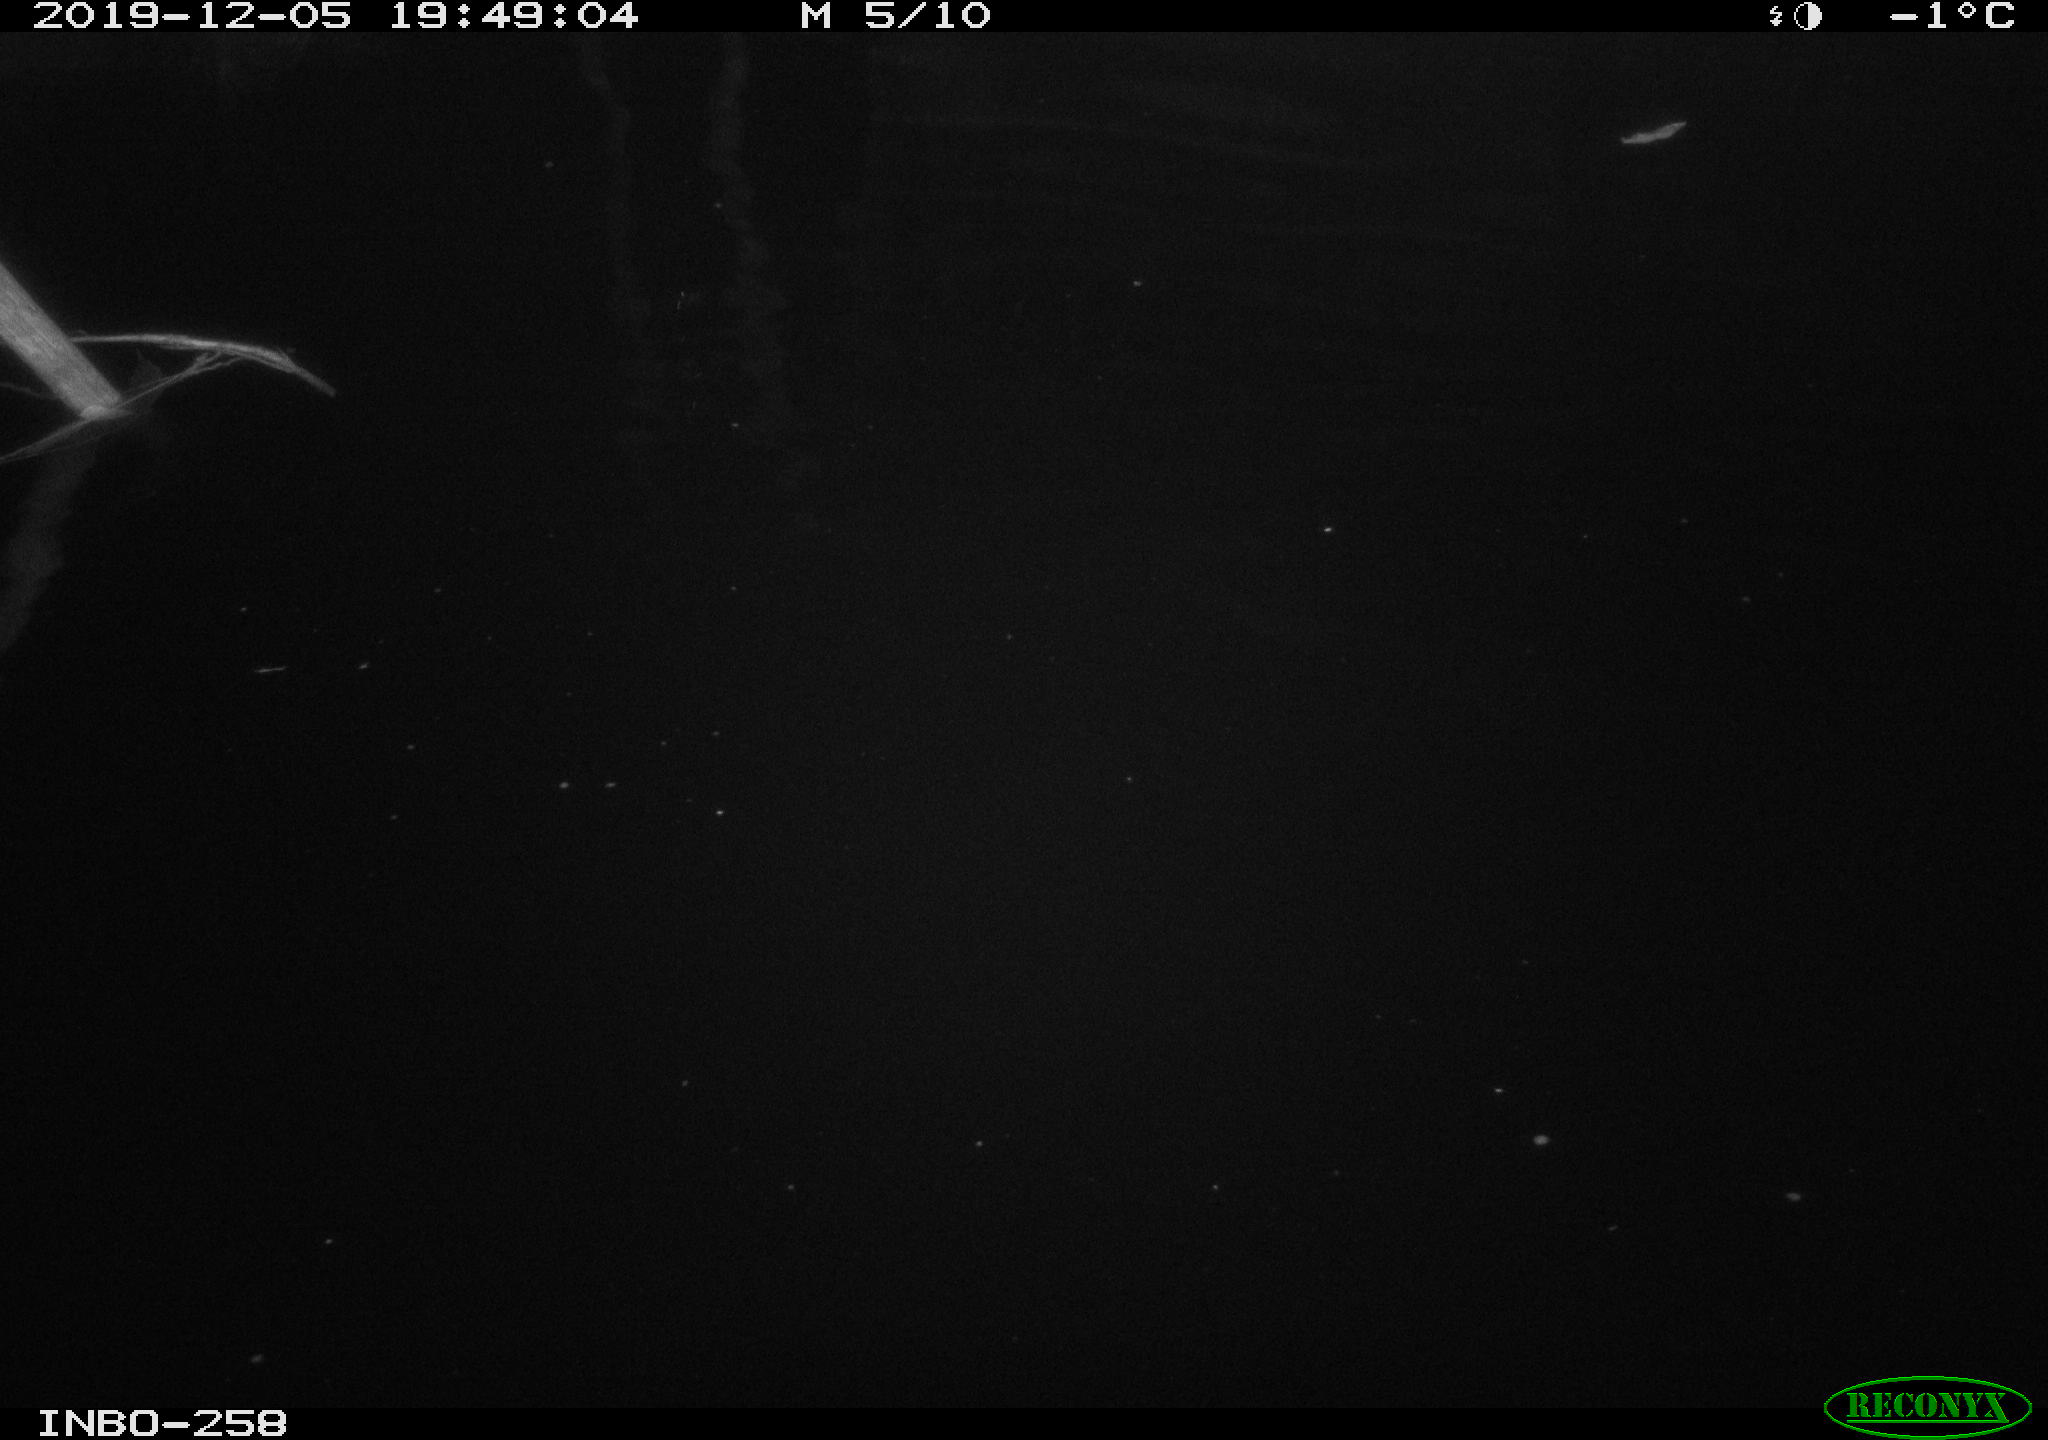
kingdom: Animalia
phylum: Chordata
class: Aves
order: Anseriformes
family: Anatidae
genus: Anas
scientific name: Anas platyrhynchos
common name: Mallard
